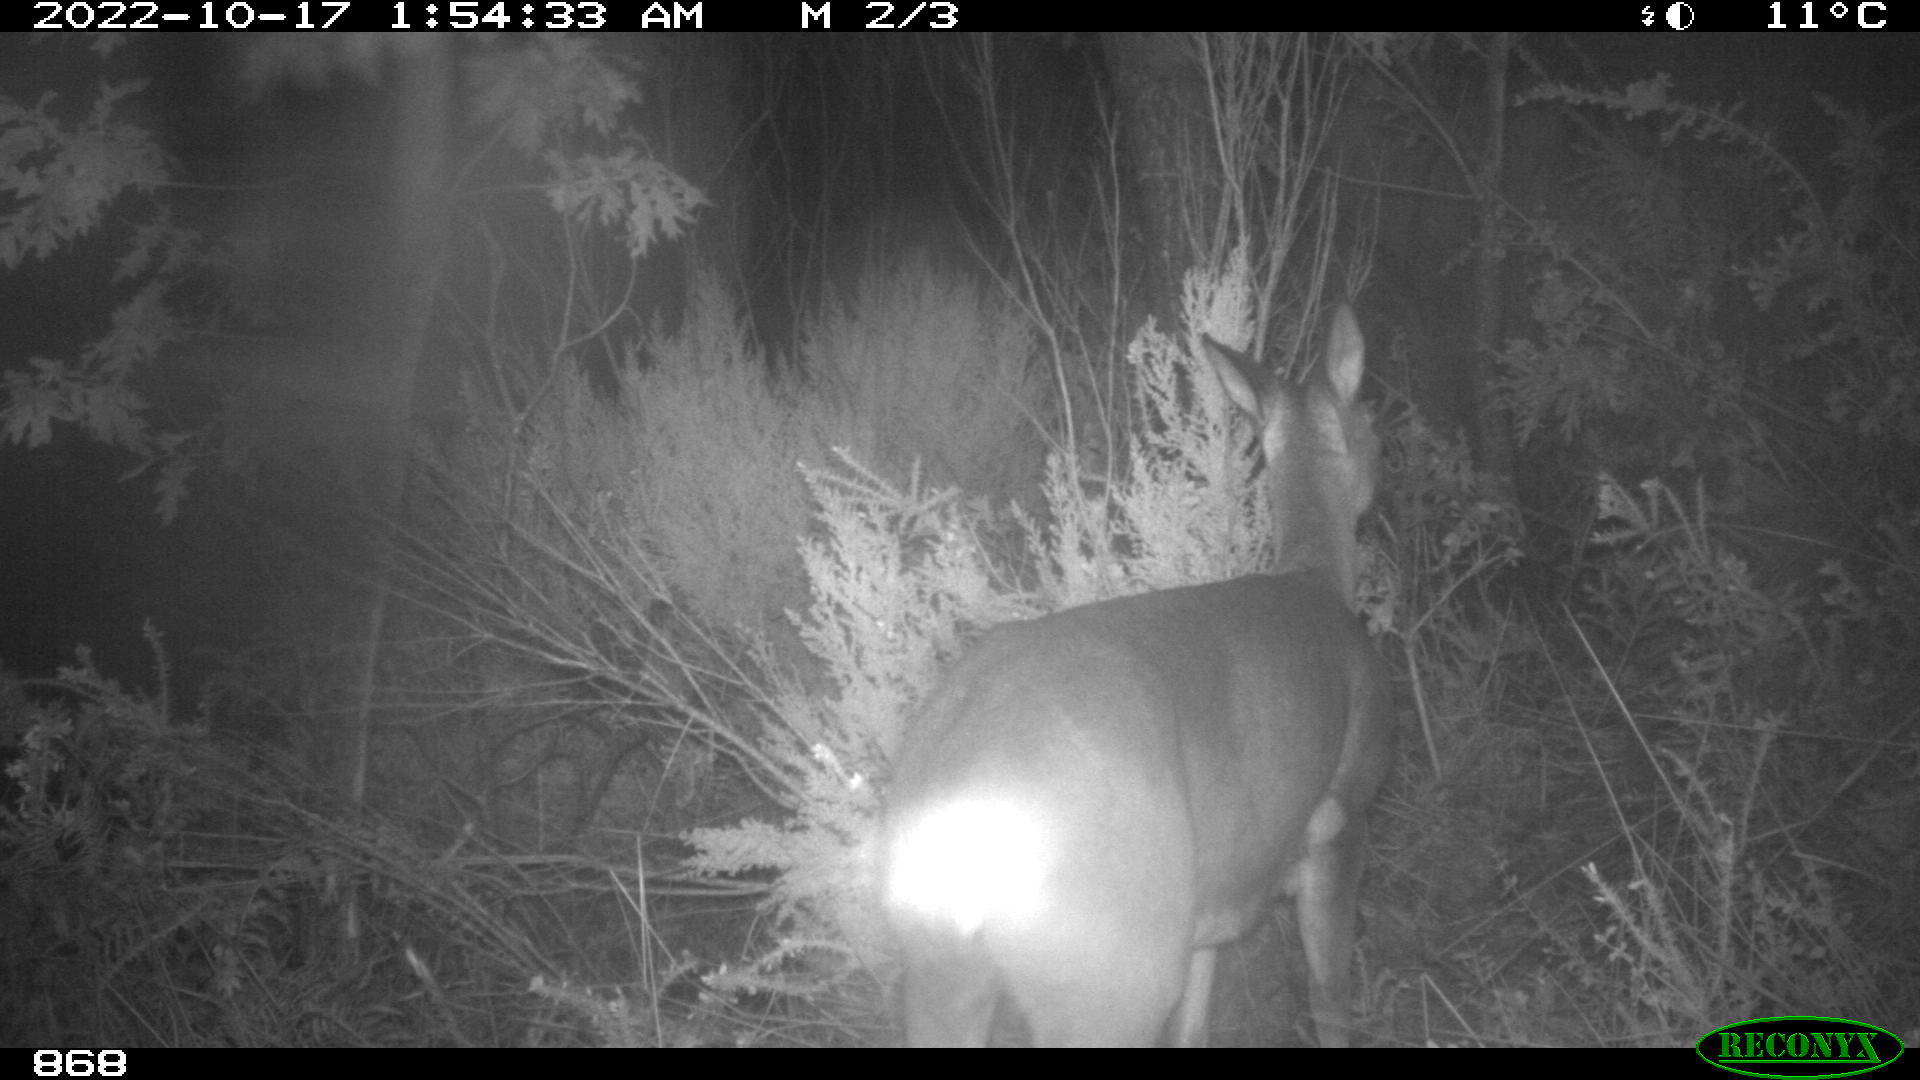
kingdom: Animalia
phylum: Chordata
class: Mammalia
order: Artiodactyla
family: Cervidae
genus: Capreolus
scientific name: Capreolus capreolus
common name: Western roe deer
